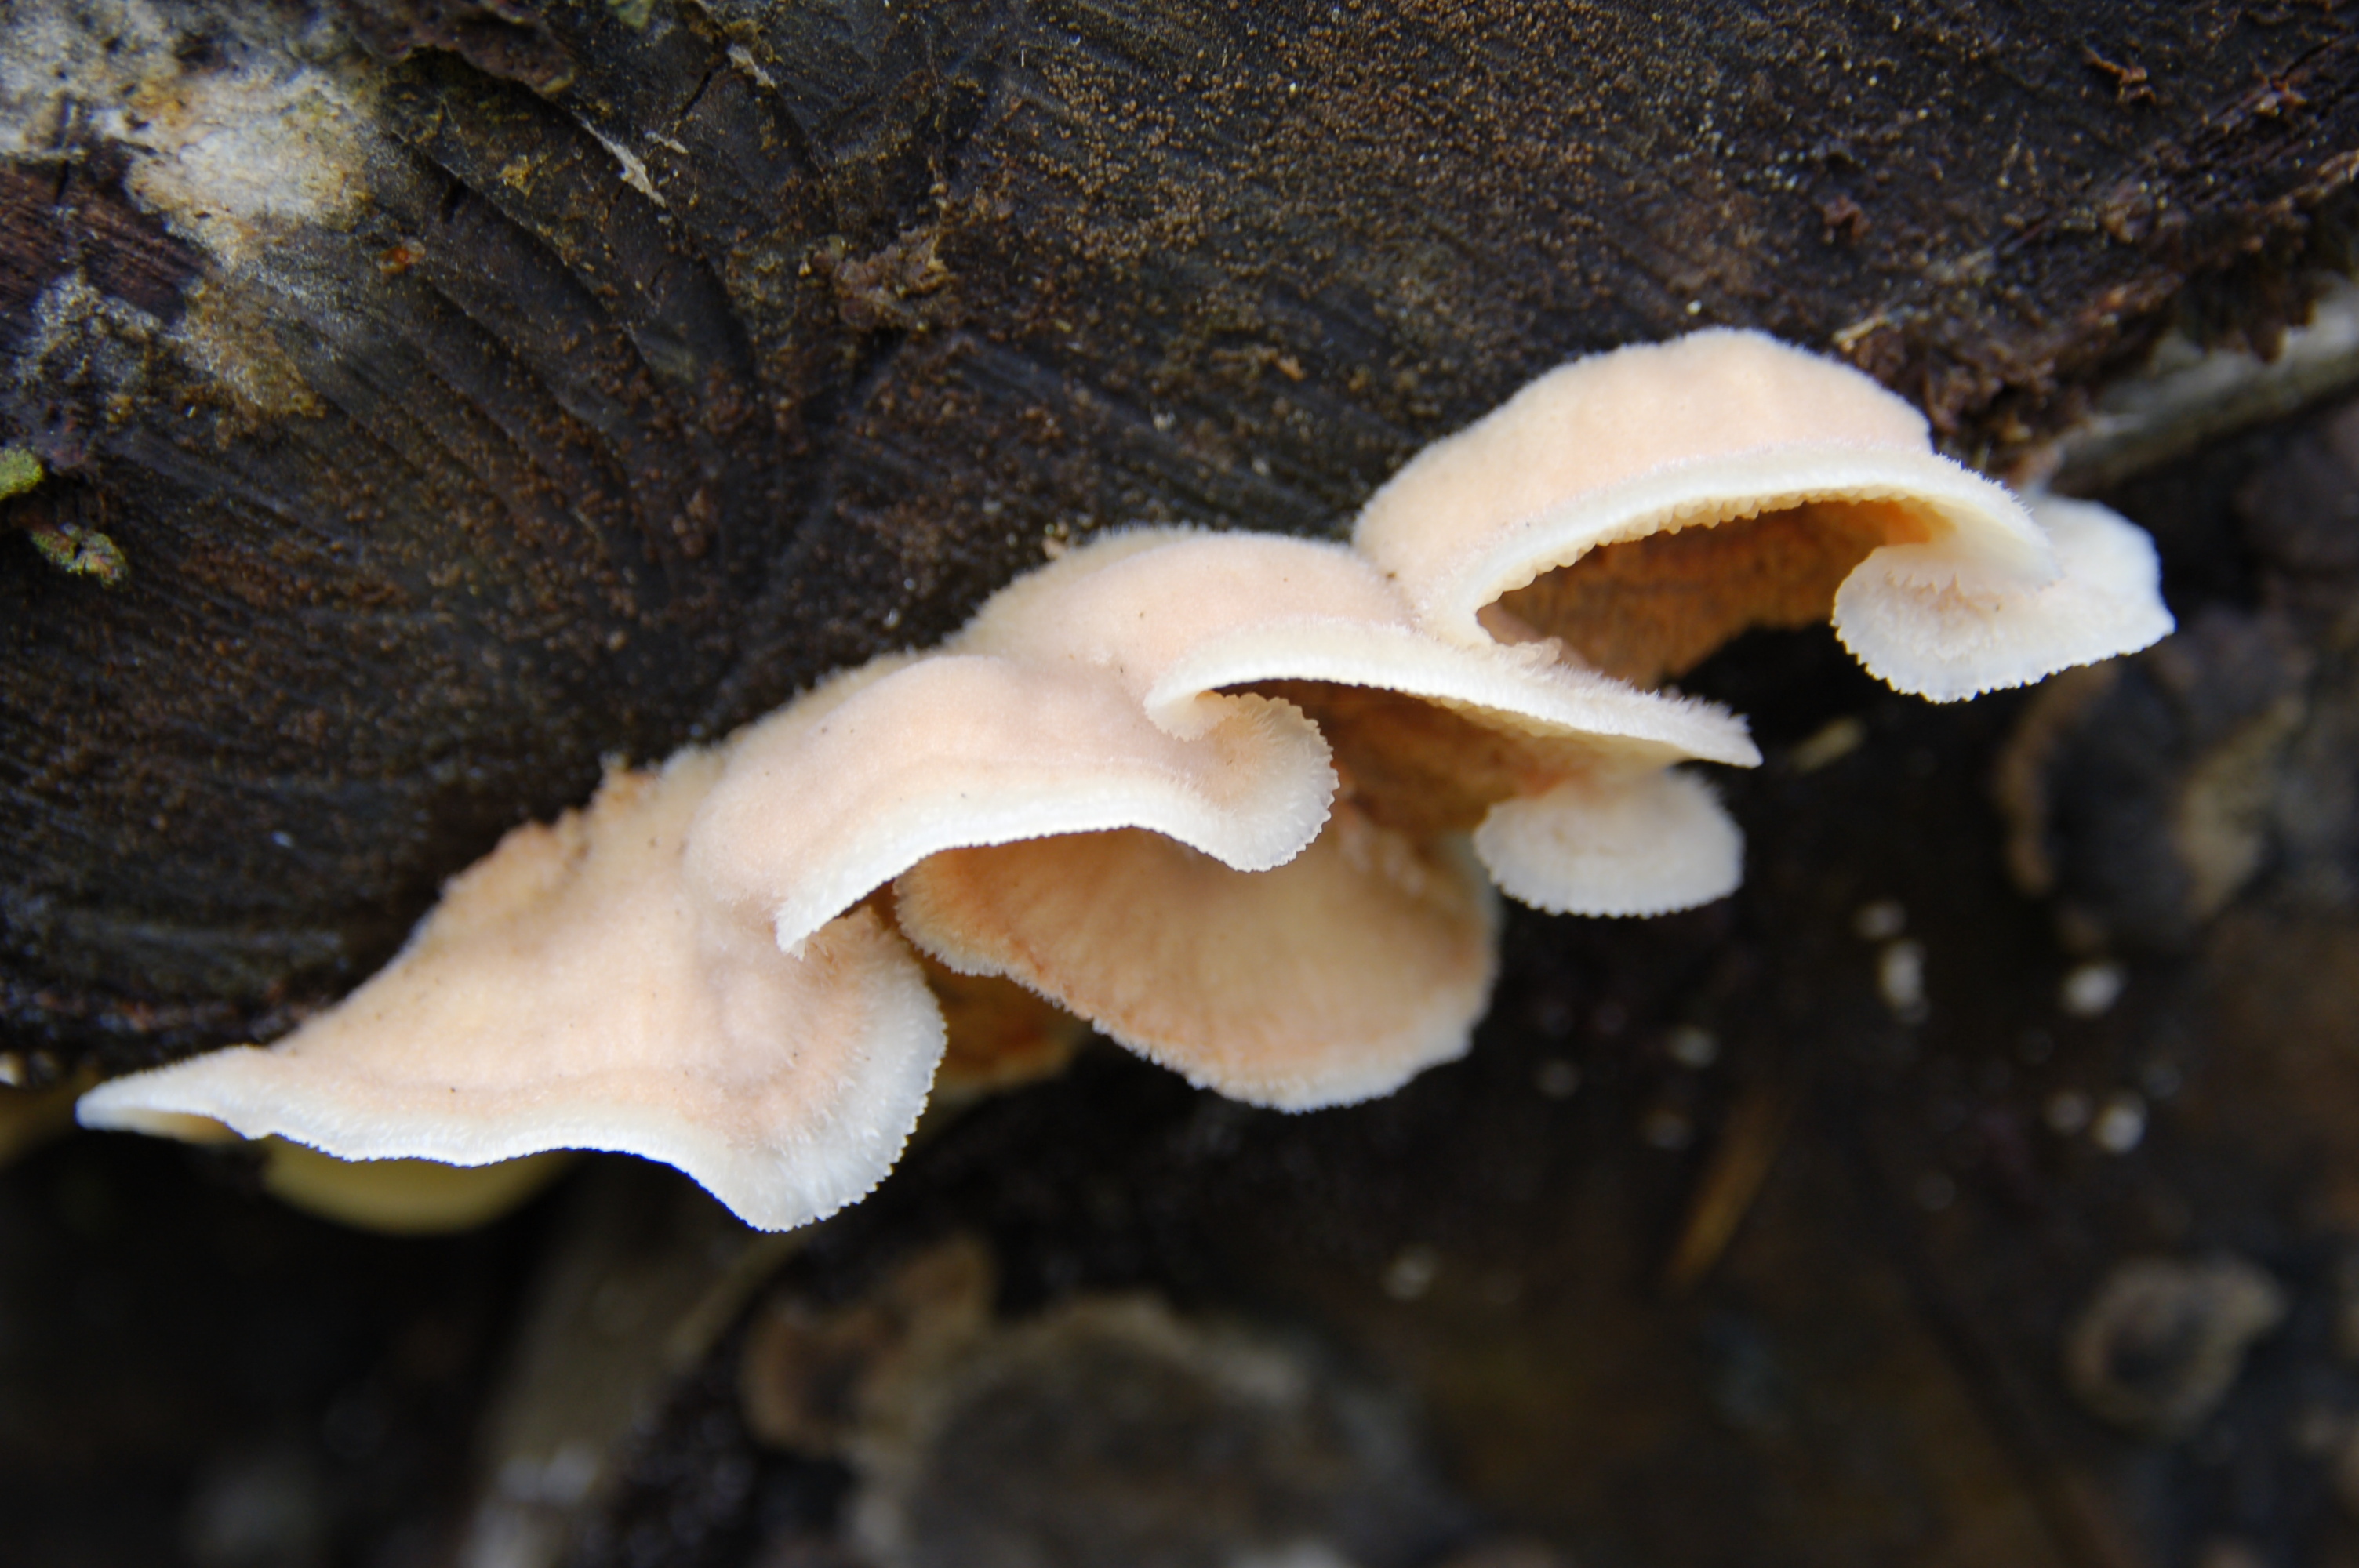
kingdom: Fungi
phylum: Basidiomycota
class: Agaricomycetes
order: Polyporales
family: Meruliaceae
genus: Phlebia
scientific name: Phlebia tremellosa
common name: Jelly rot
